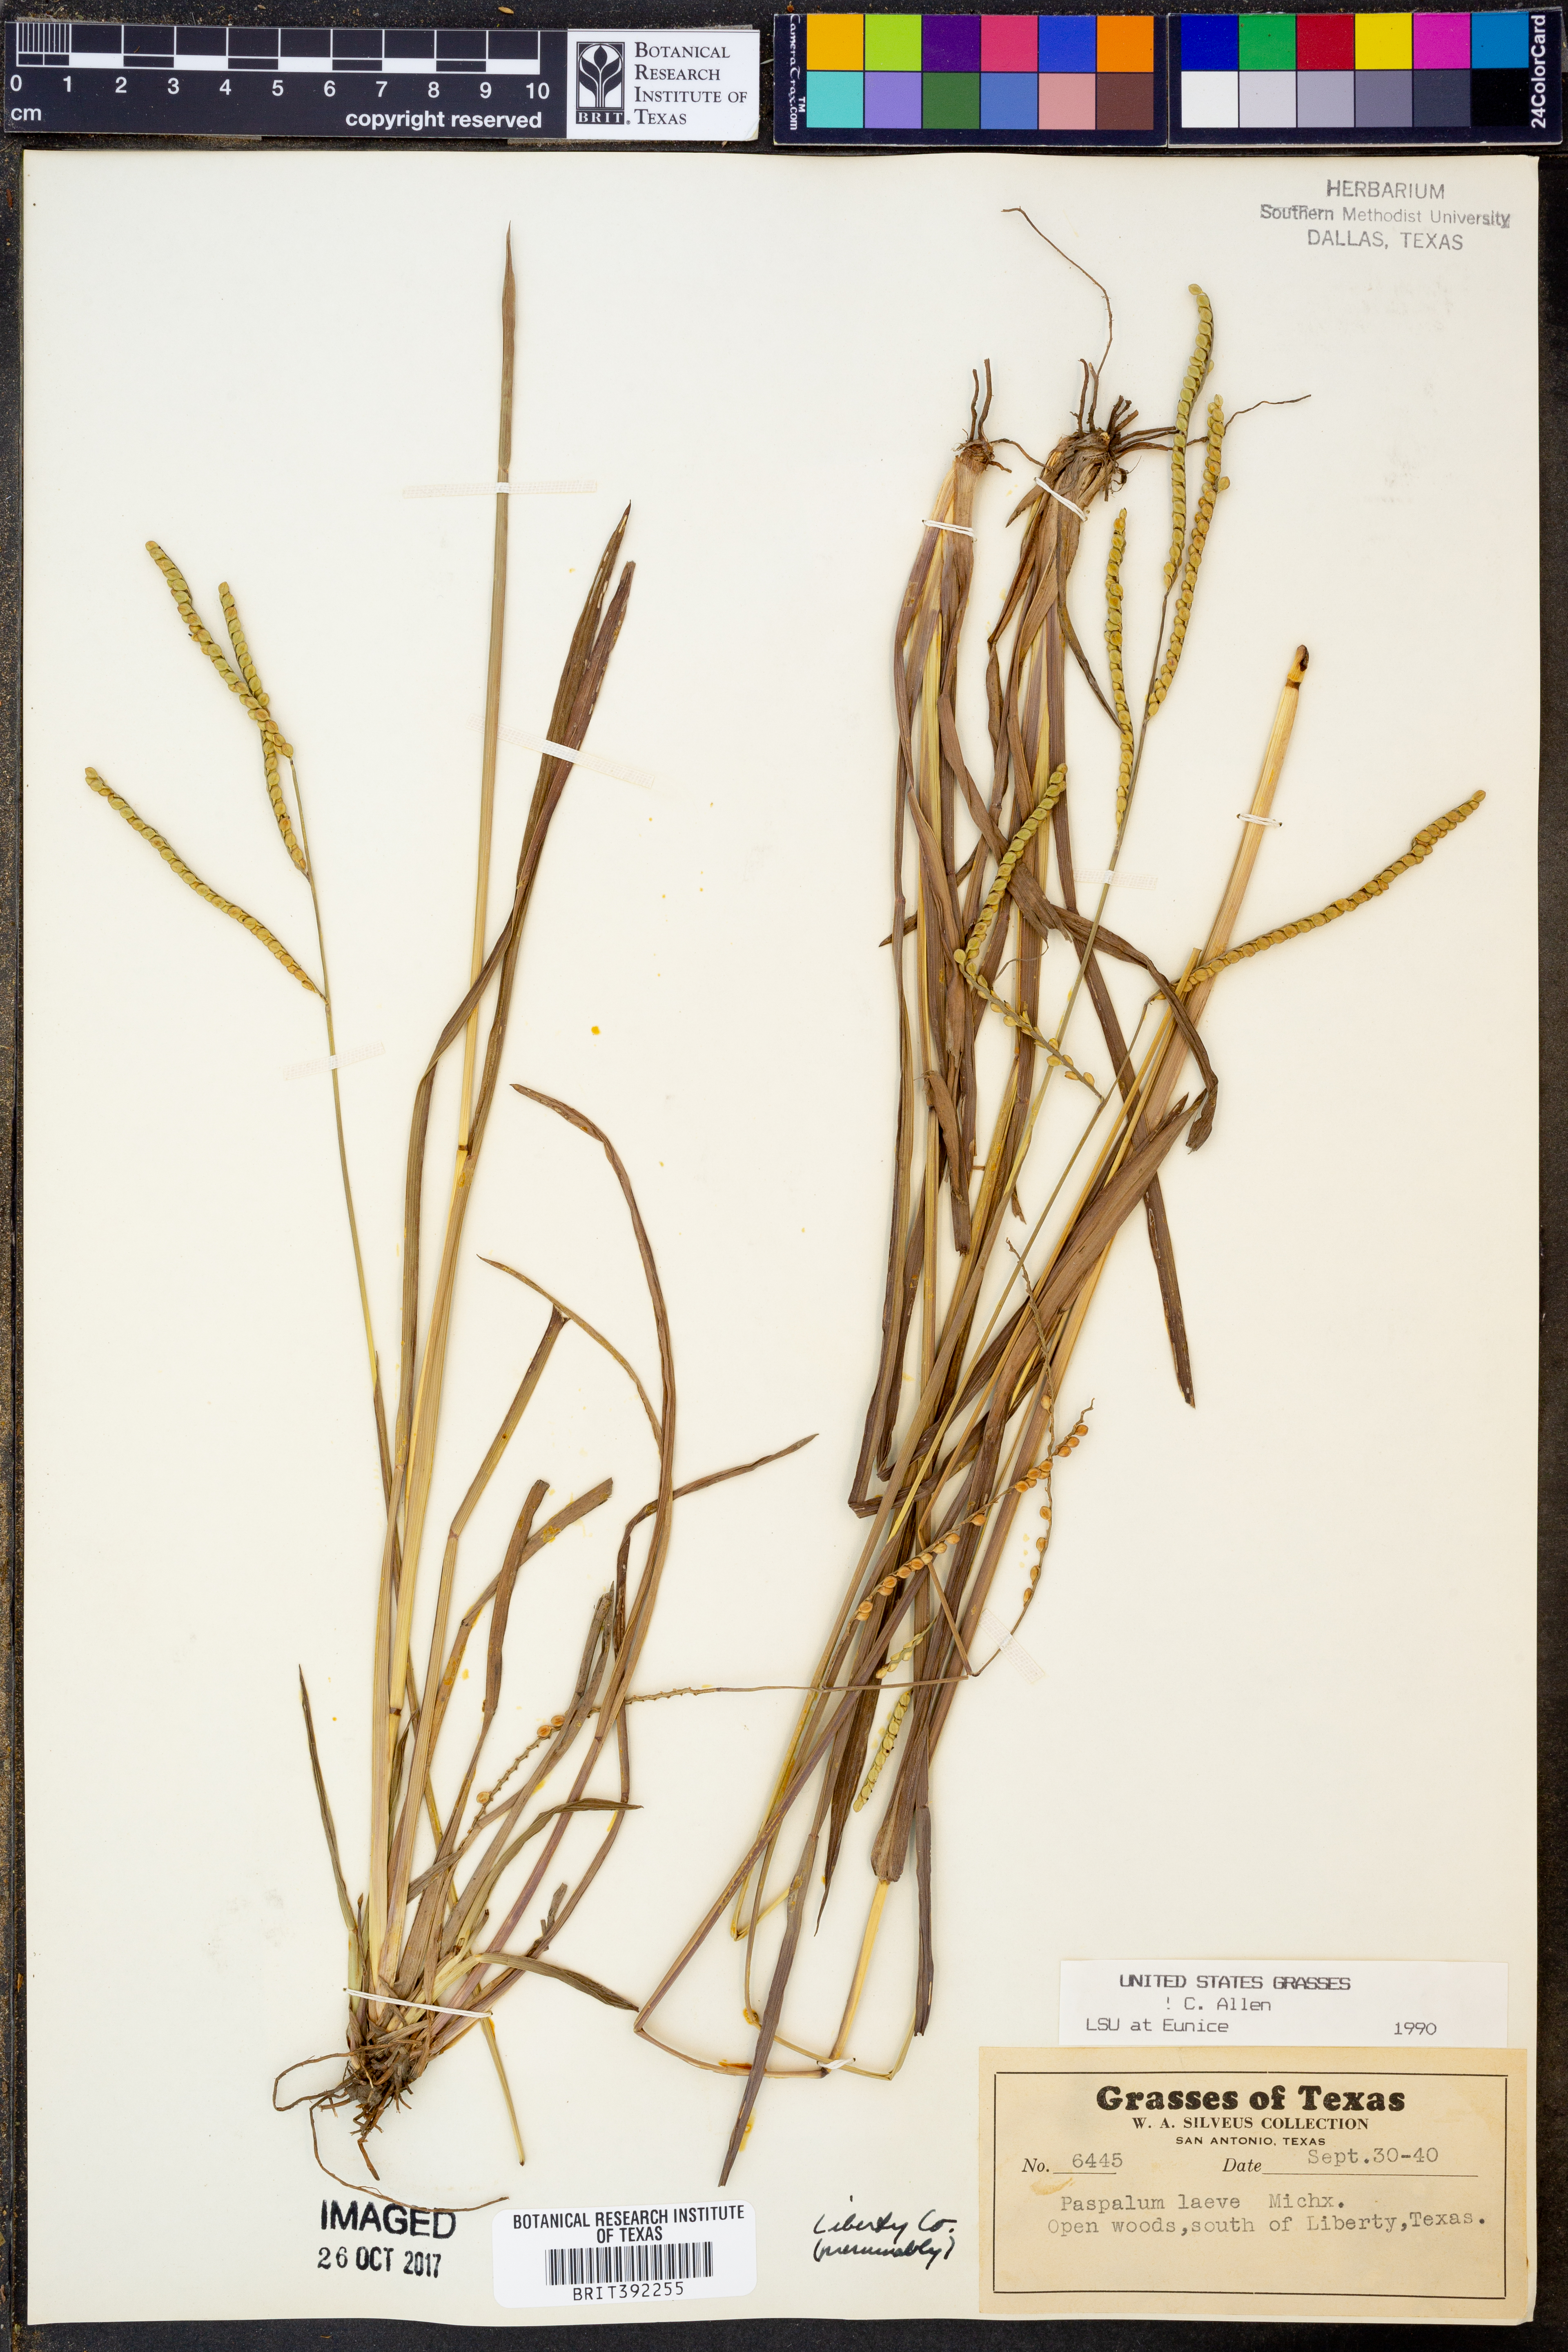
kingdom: Plantae
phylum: Tracheophyta
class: Liliopsida
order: Poales
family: Poaceae
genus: Paspalum
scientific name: Paspalum laeve
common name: Field paspalum
